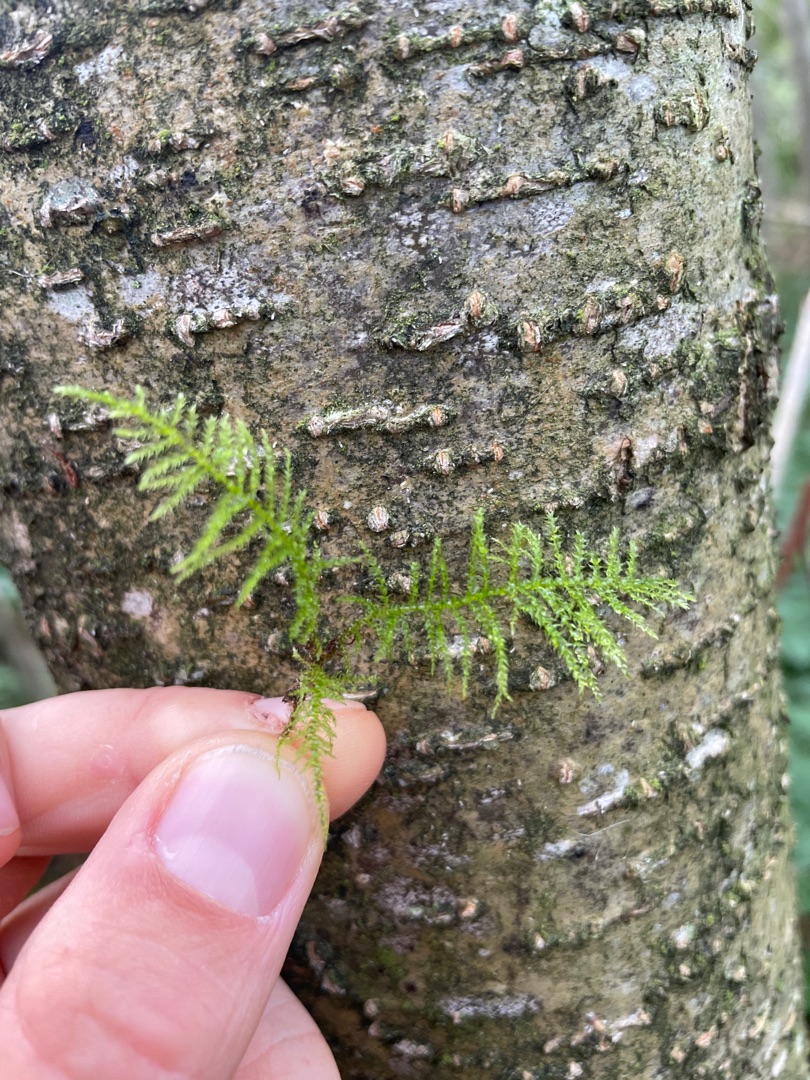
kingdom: Plantae
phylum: Bryophyta
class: Bryopsida
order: Hypnales
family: Brachytheciaceae
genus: Kindbergia
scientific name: Kindbergia praelonga
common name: Forskelligbladet vortetand
